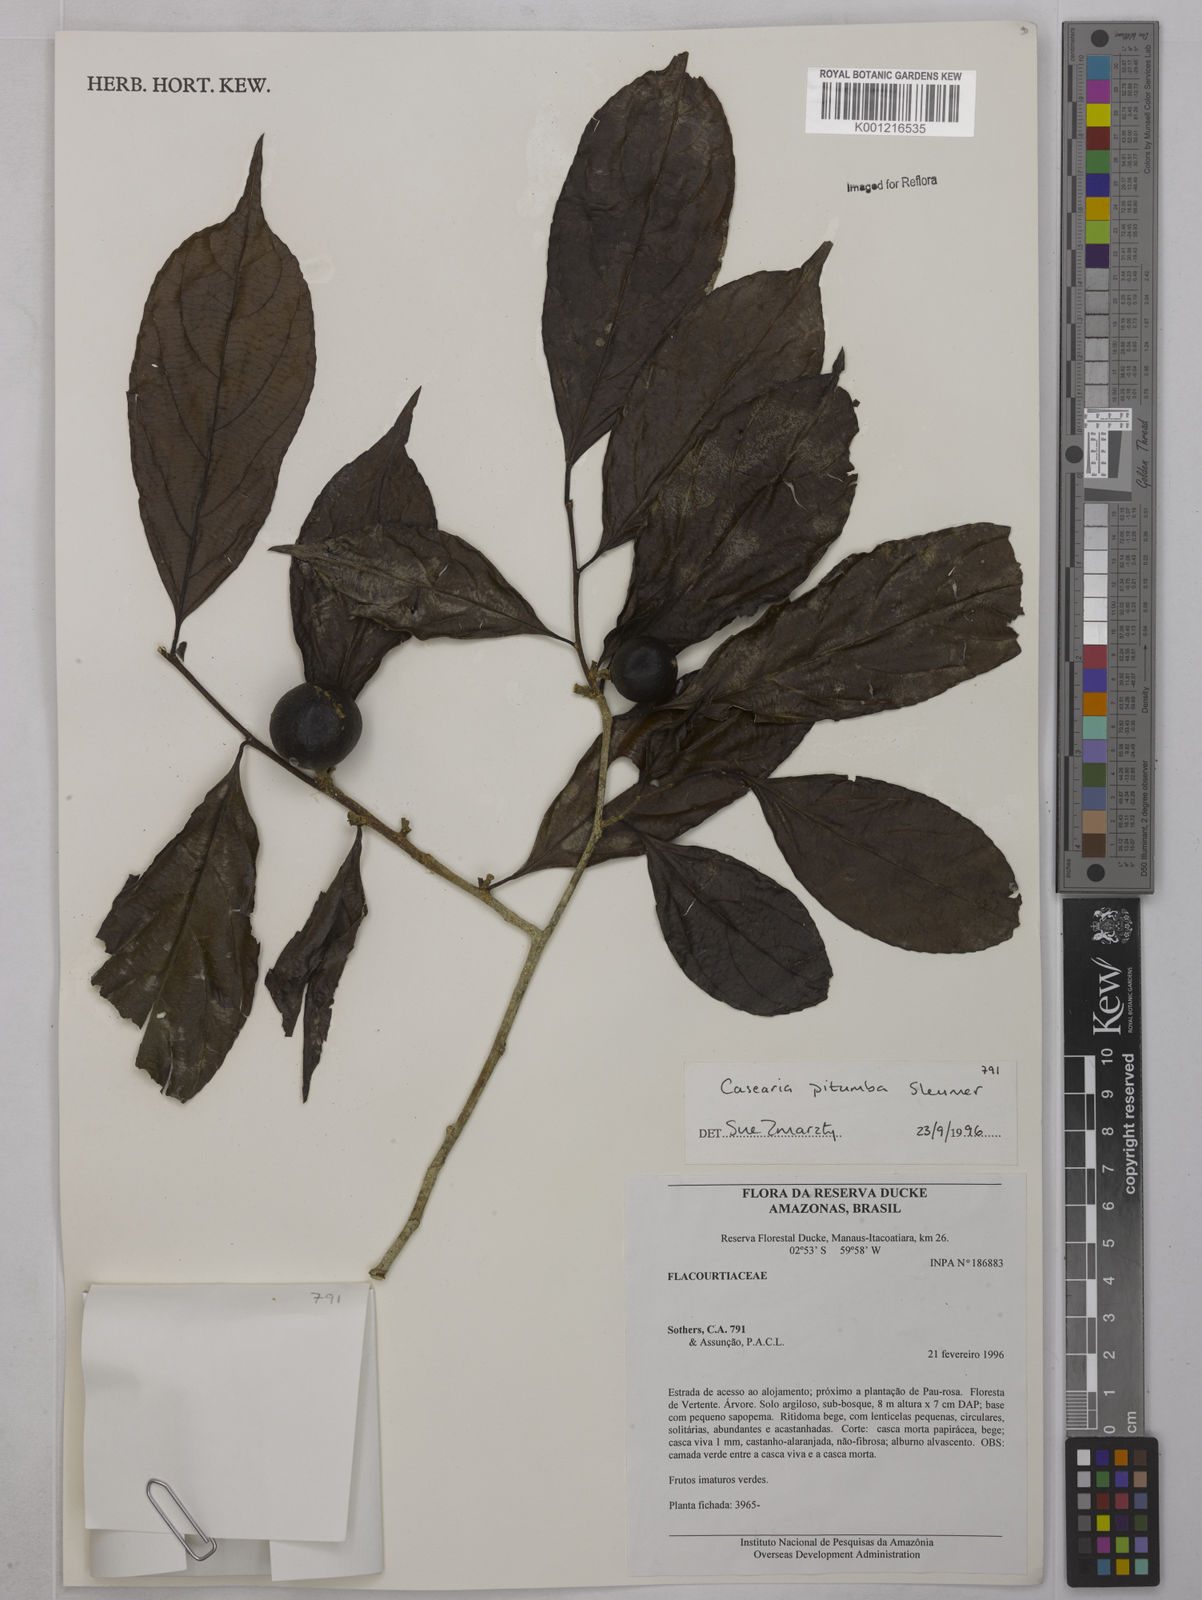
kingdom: Plantae
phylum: Tracheophyta
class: Magnoliopsida
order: Malpighiales
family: Salicaceae
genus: Casearia
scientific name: Casearia pitumba
